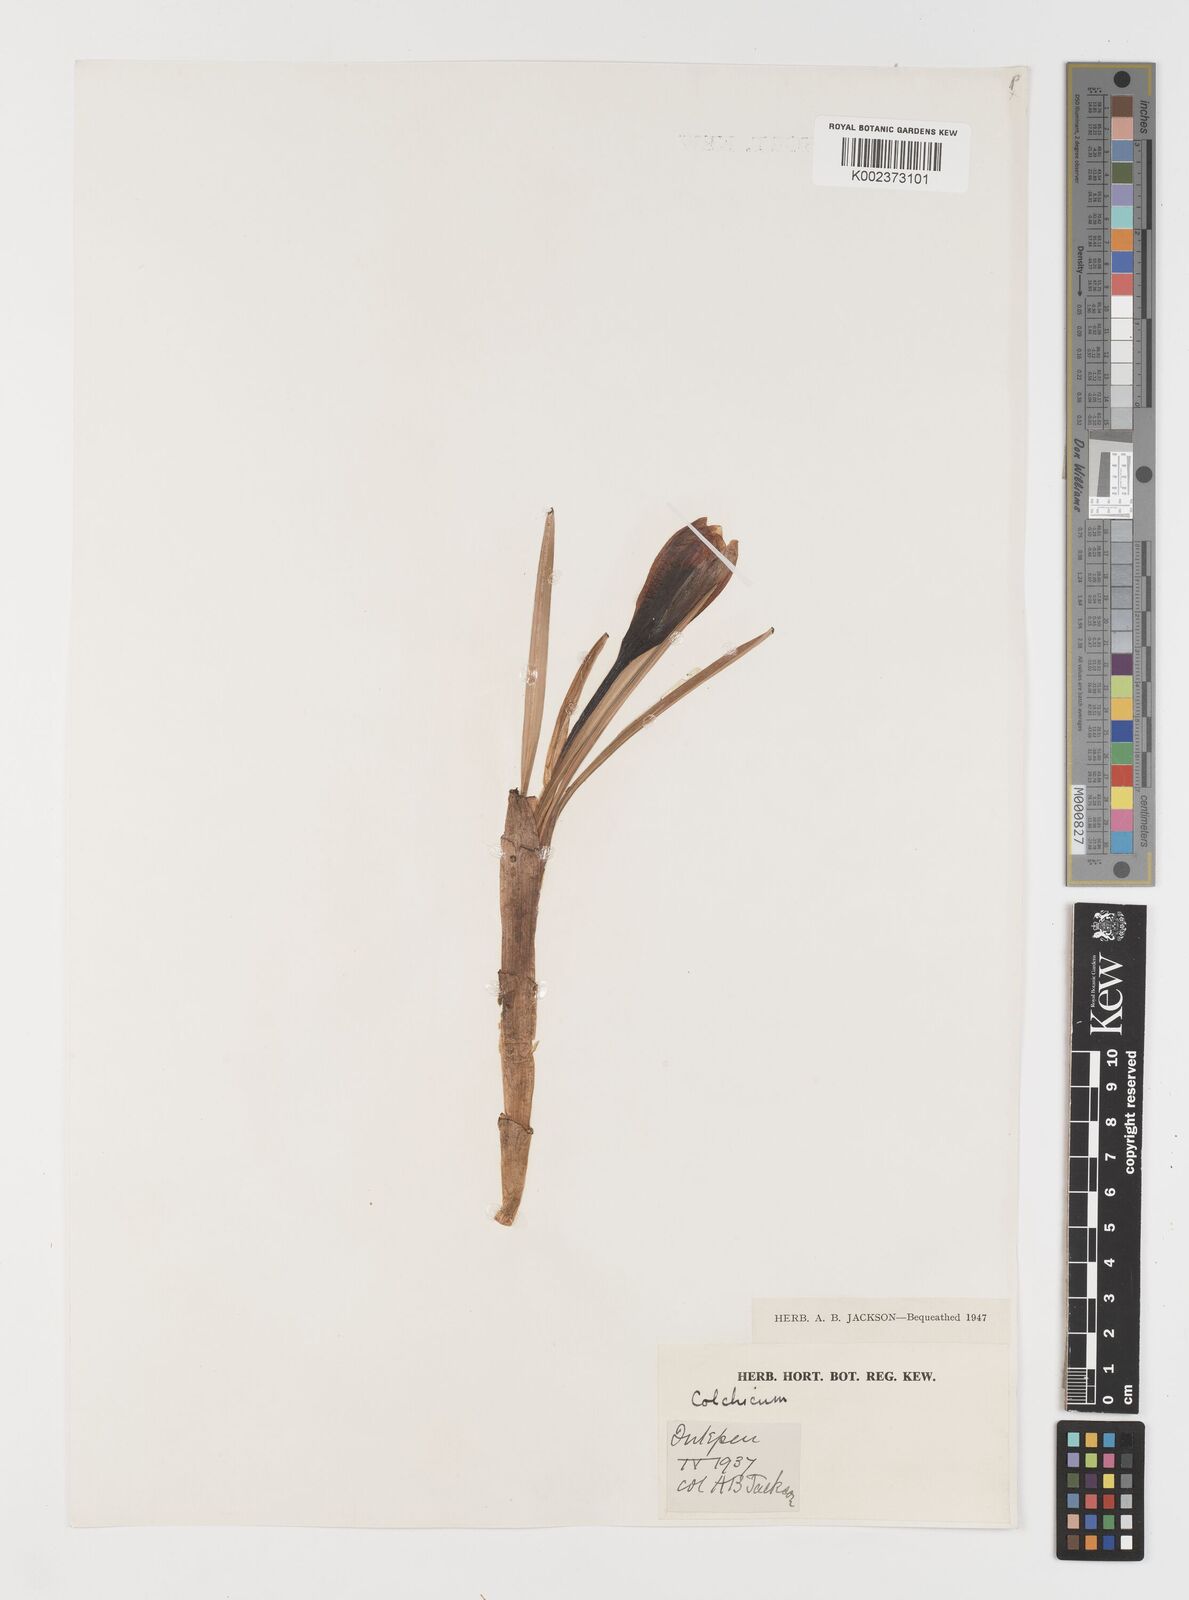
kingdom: Plantae
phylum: Tracheophyta
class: Liliopsida
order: Liliales
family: Colchicaceae
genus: Colchicum
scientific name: Colchicum autumnale
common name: Autumn crocus
